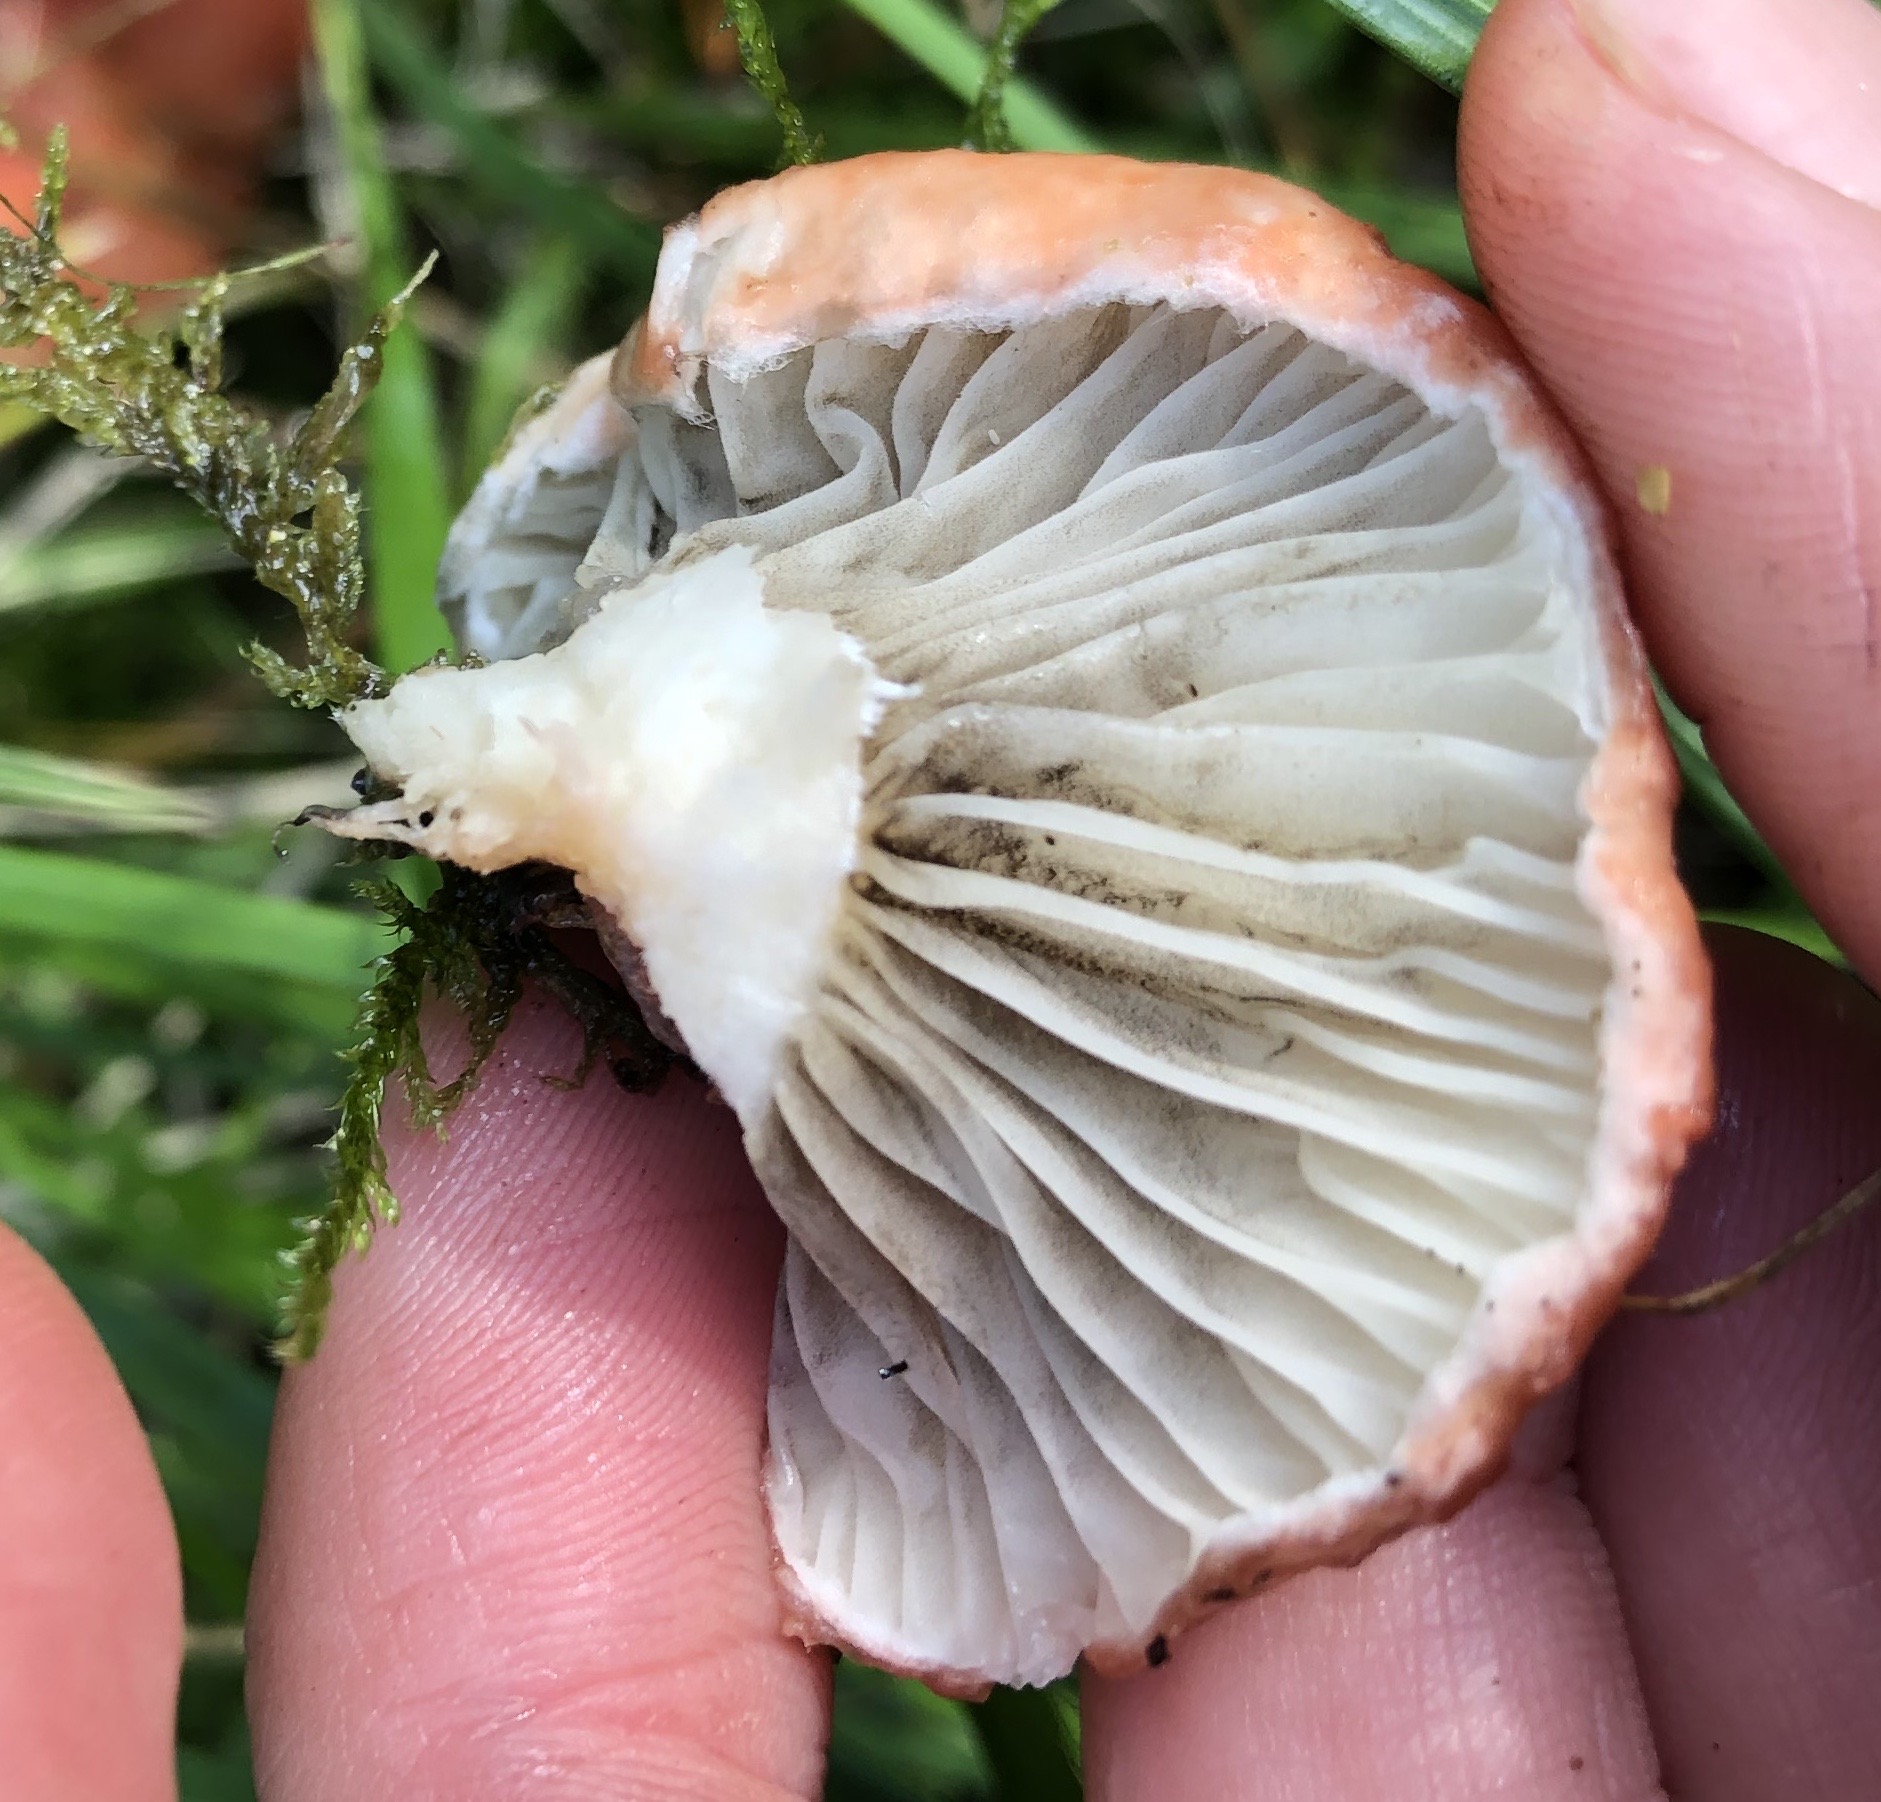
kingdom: Fungi
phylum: Basidiomycota
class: Agaricomycetes
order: Boletales
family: Gomphidiaceae
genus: Gomphidius
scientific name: Gomphidius roseus
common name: rosenrød slimslør
